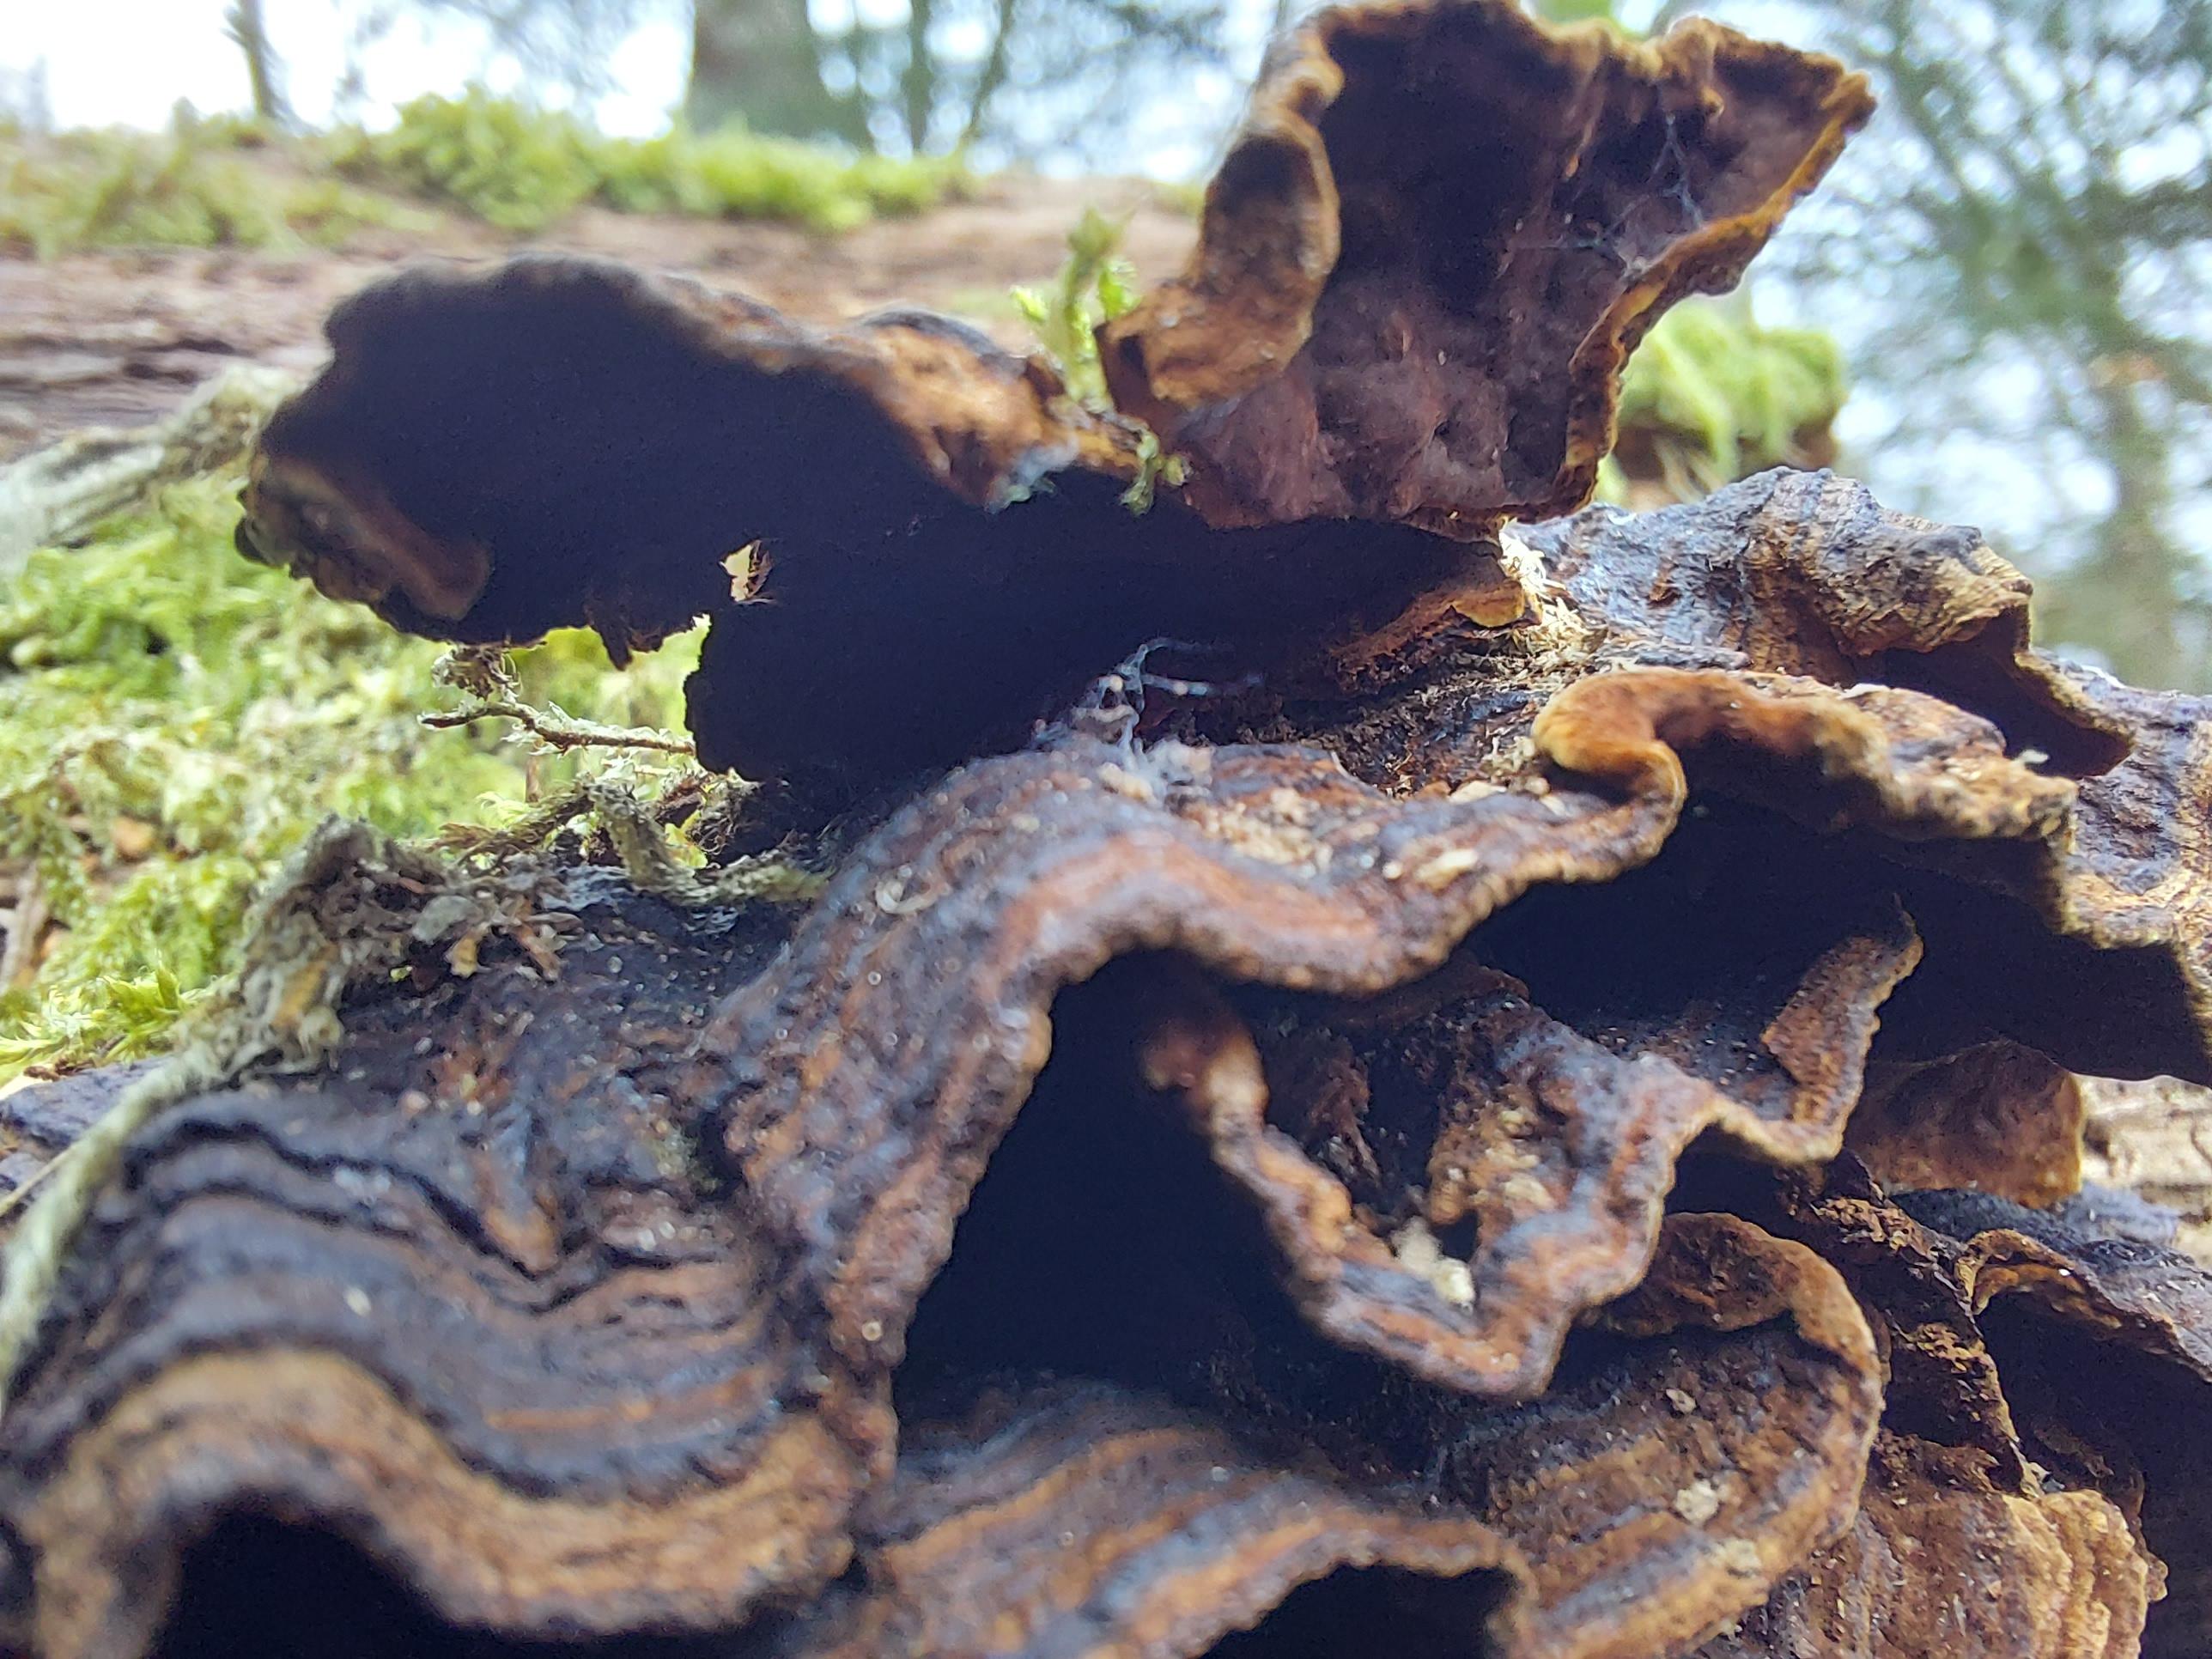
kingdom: Fungi
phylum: Basidiomycota
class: Agaricomycetes
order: Hymenochaetales
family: Hymenochaetaceae
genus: Hymenochaete
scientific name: Hymenochaete rubiginosa
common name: stiv ruslædersvamp
